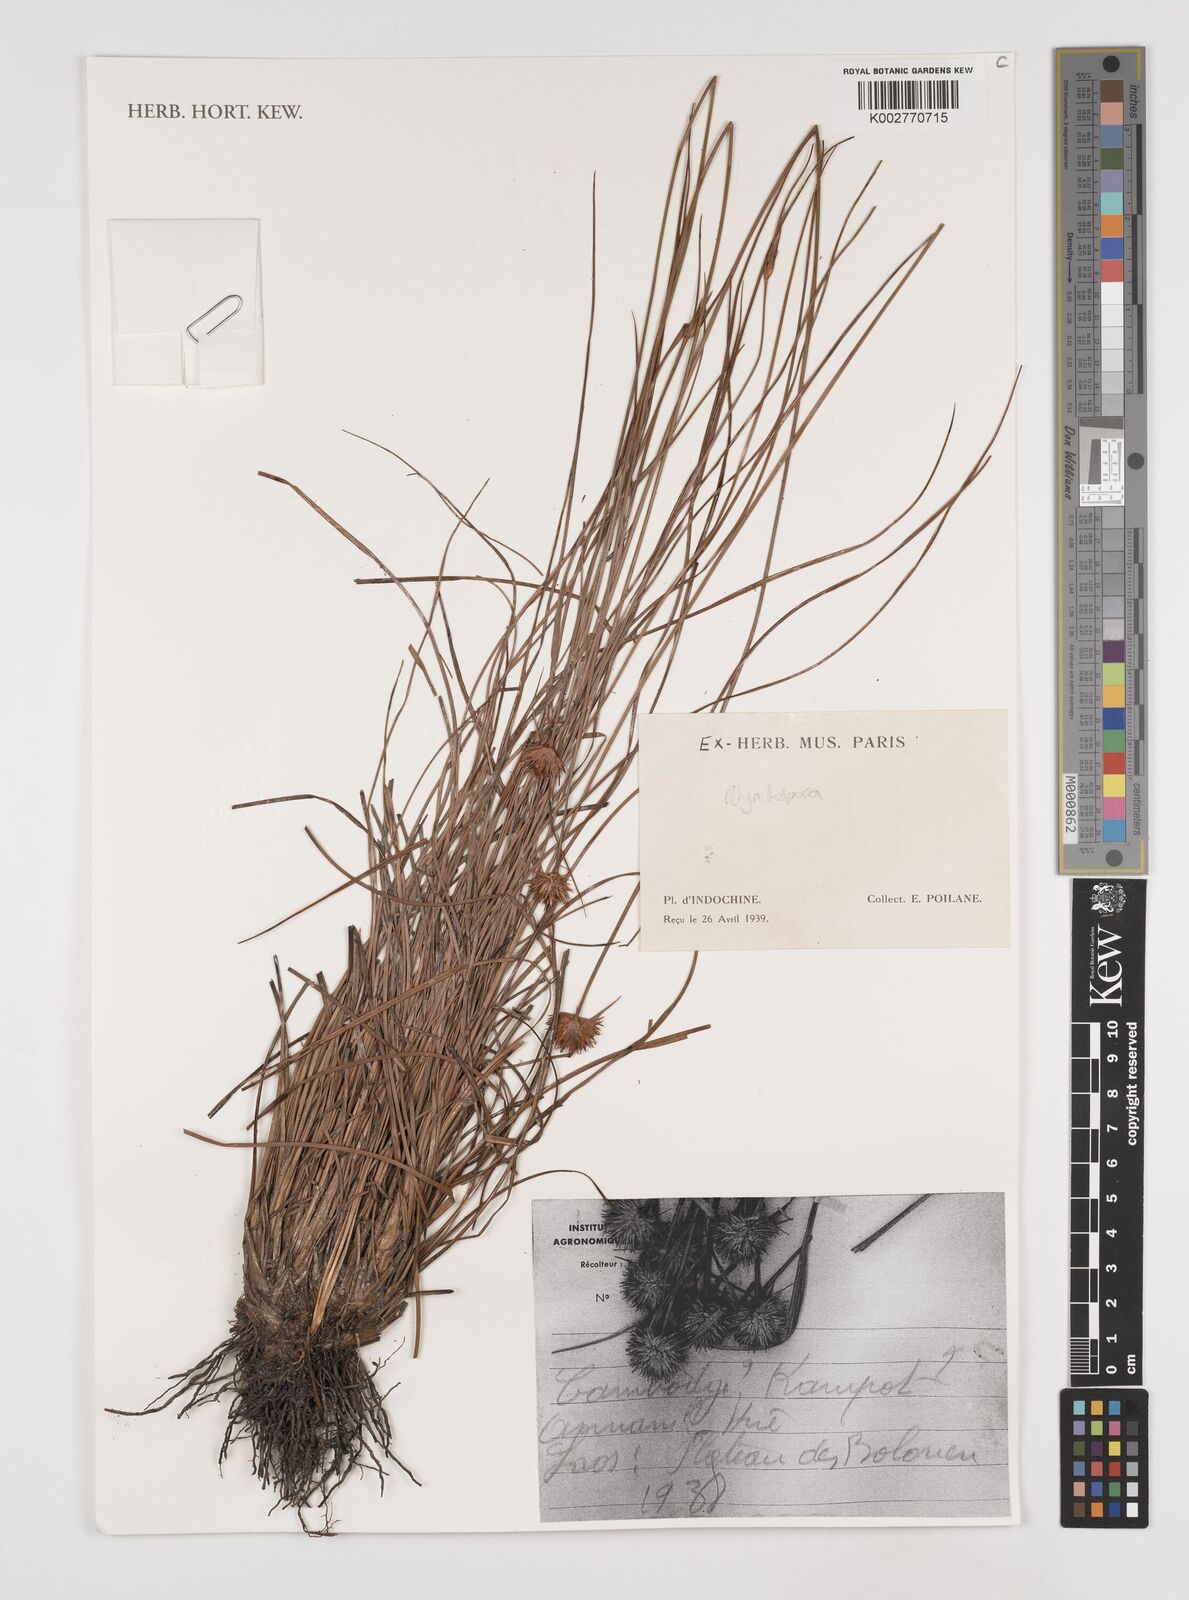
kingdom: Plantae
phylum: Tracheophyta
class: Liliopsida
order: Poales
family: Cyperaceae
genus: Rhynchospora
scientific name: Rhynchospora
